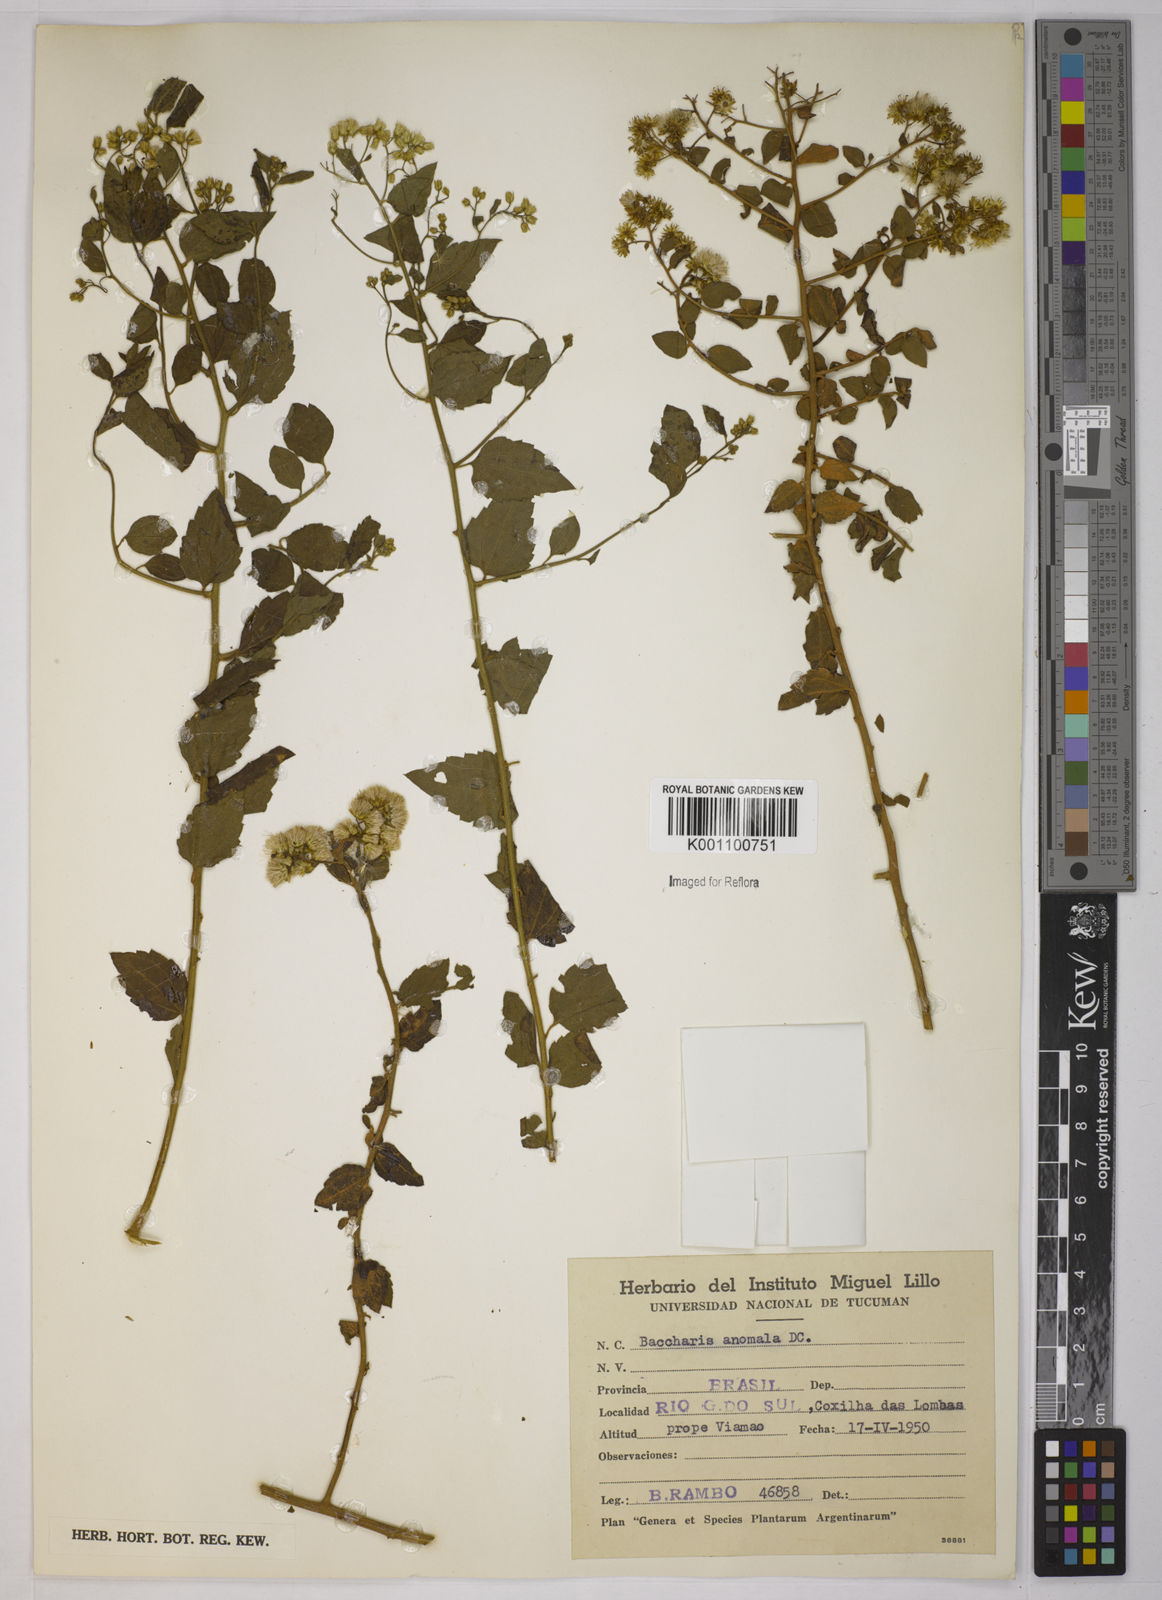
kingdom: Plantae
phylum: Tracheophyta
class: Magnoliopsida
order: Asterales
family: Asteraceae
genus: Baccharis
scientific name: Baccharis anomala
